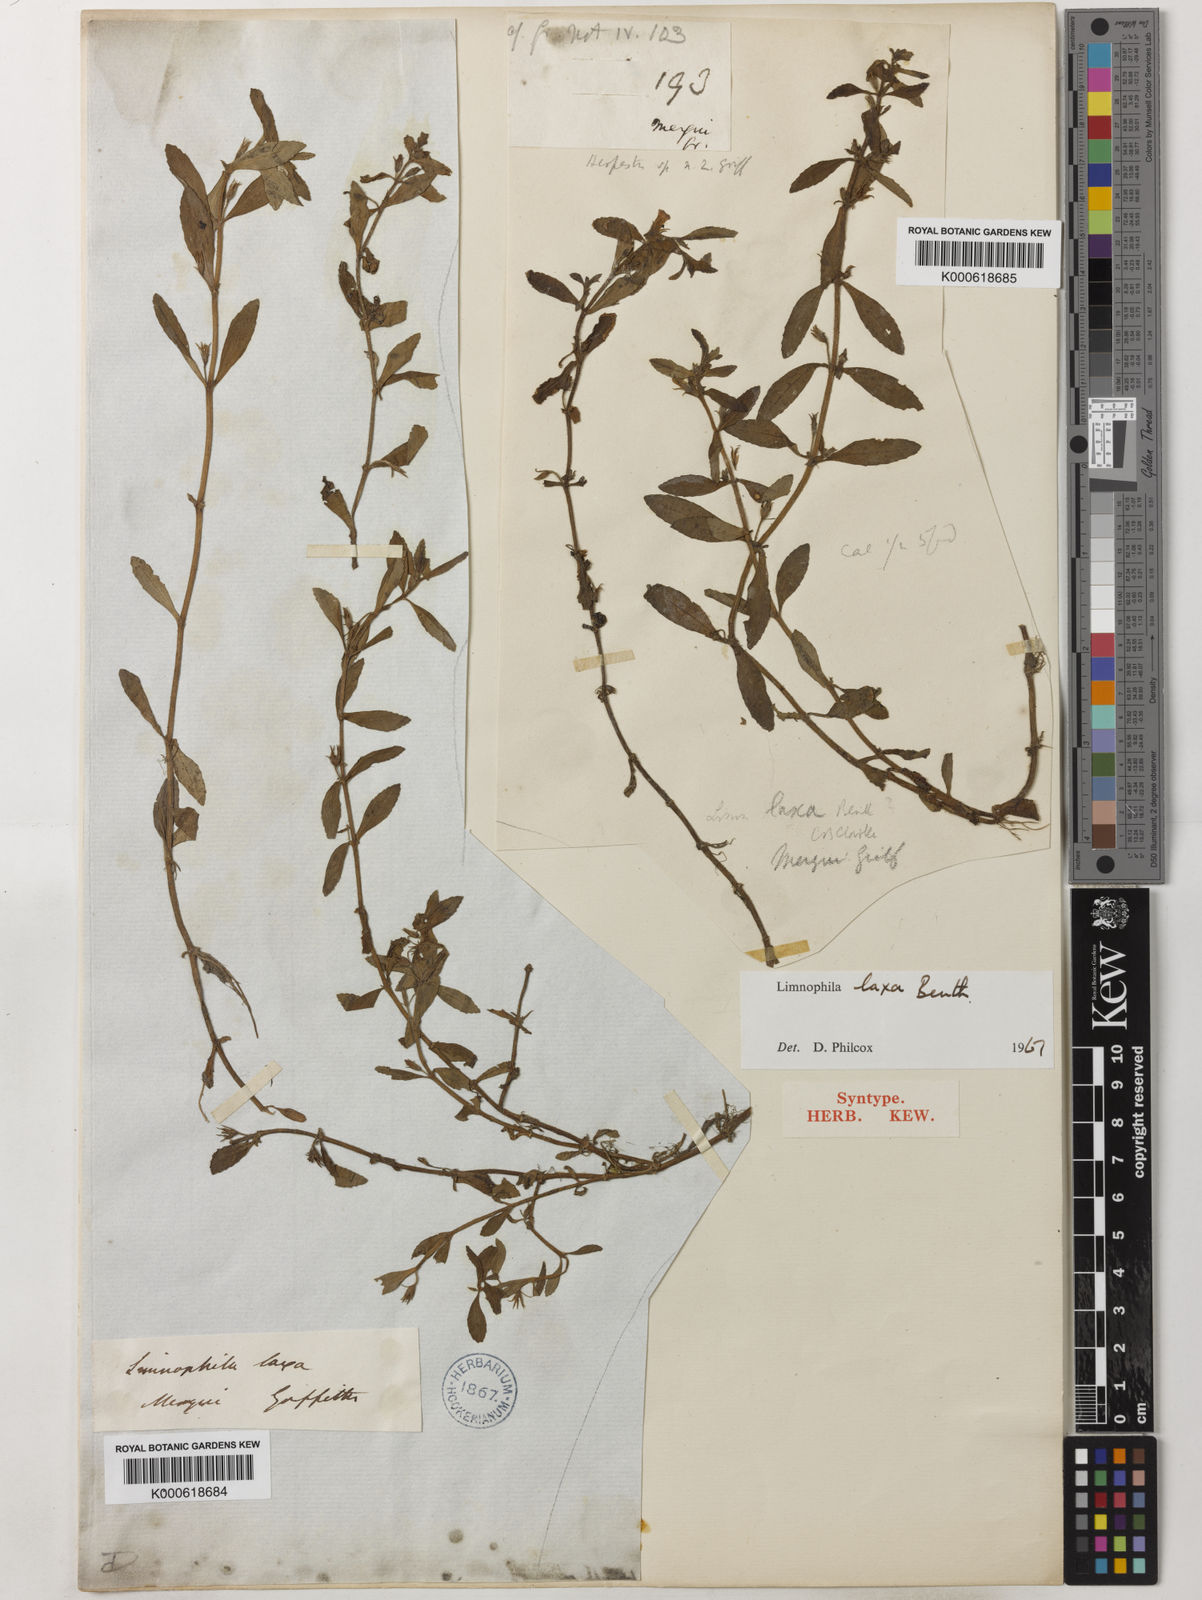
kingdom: Plantae
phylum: Tracheophyta
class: Magnoliopsida
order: Lamiales
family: Plantaginaceae
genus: Limnophila
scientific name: Limnophila laxa
